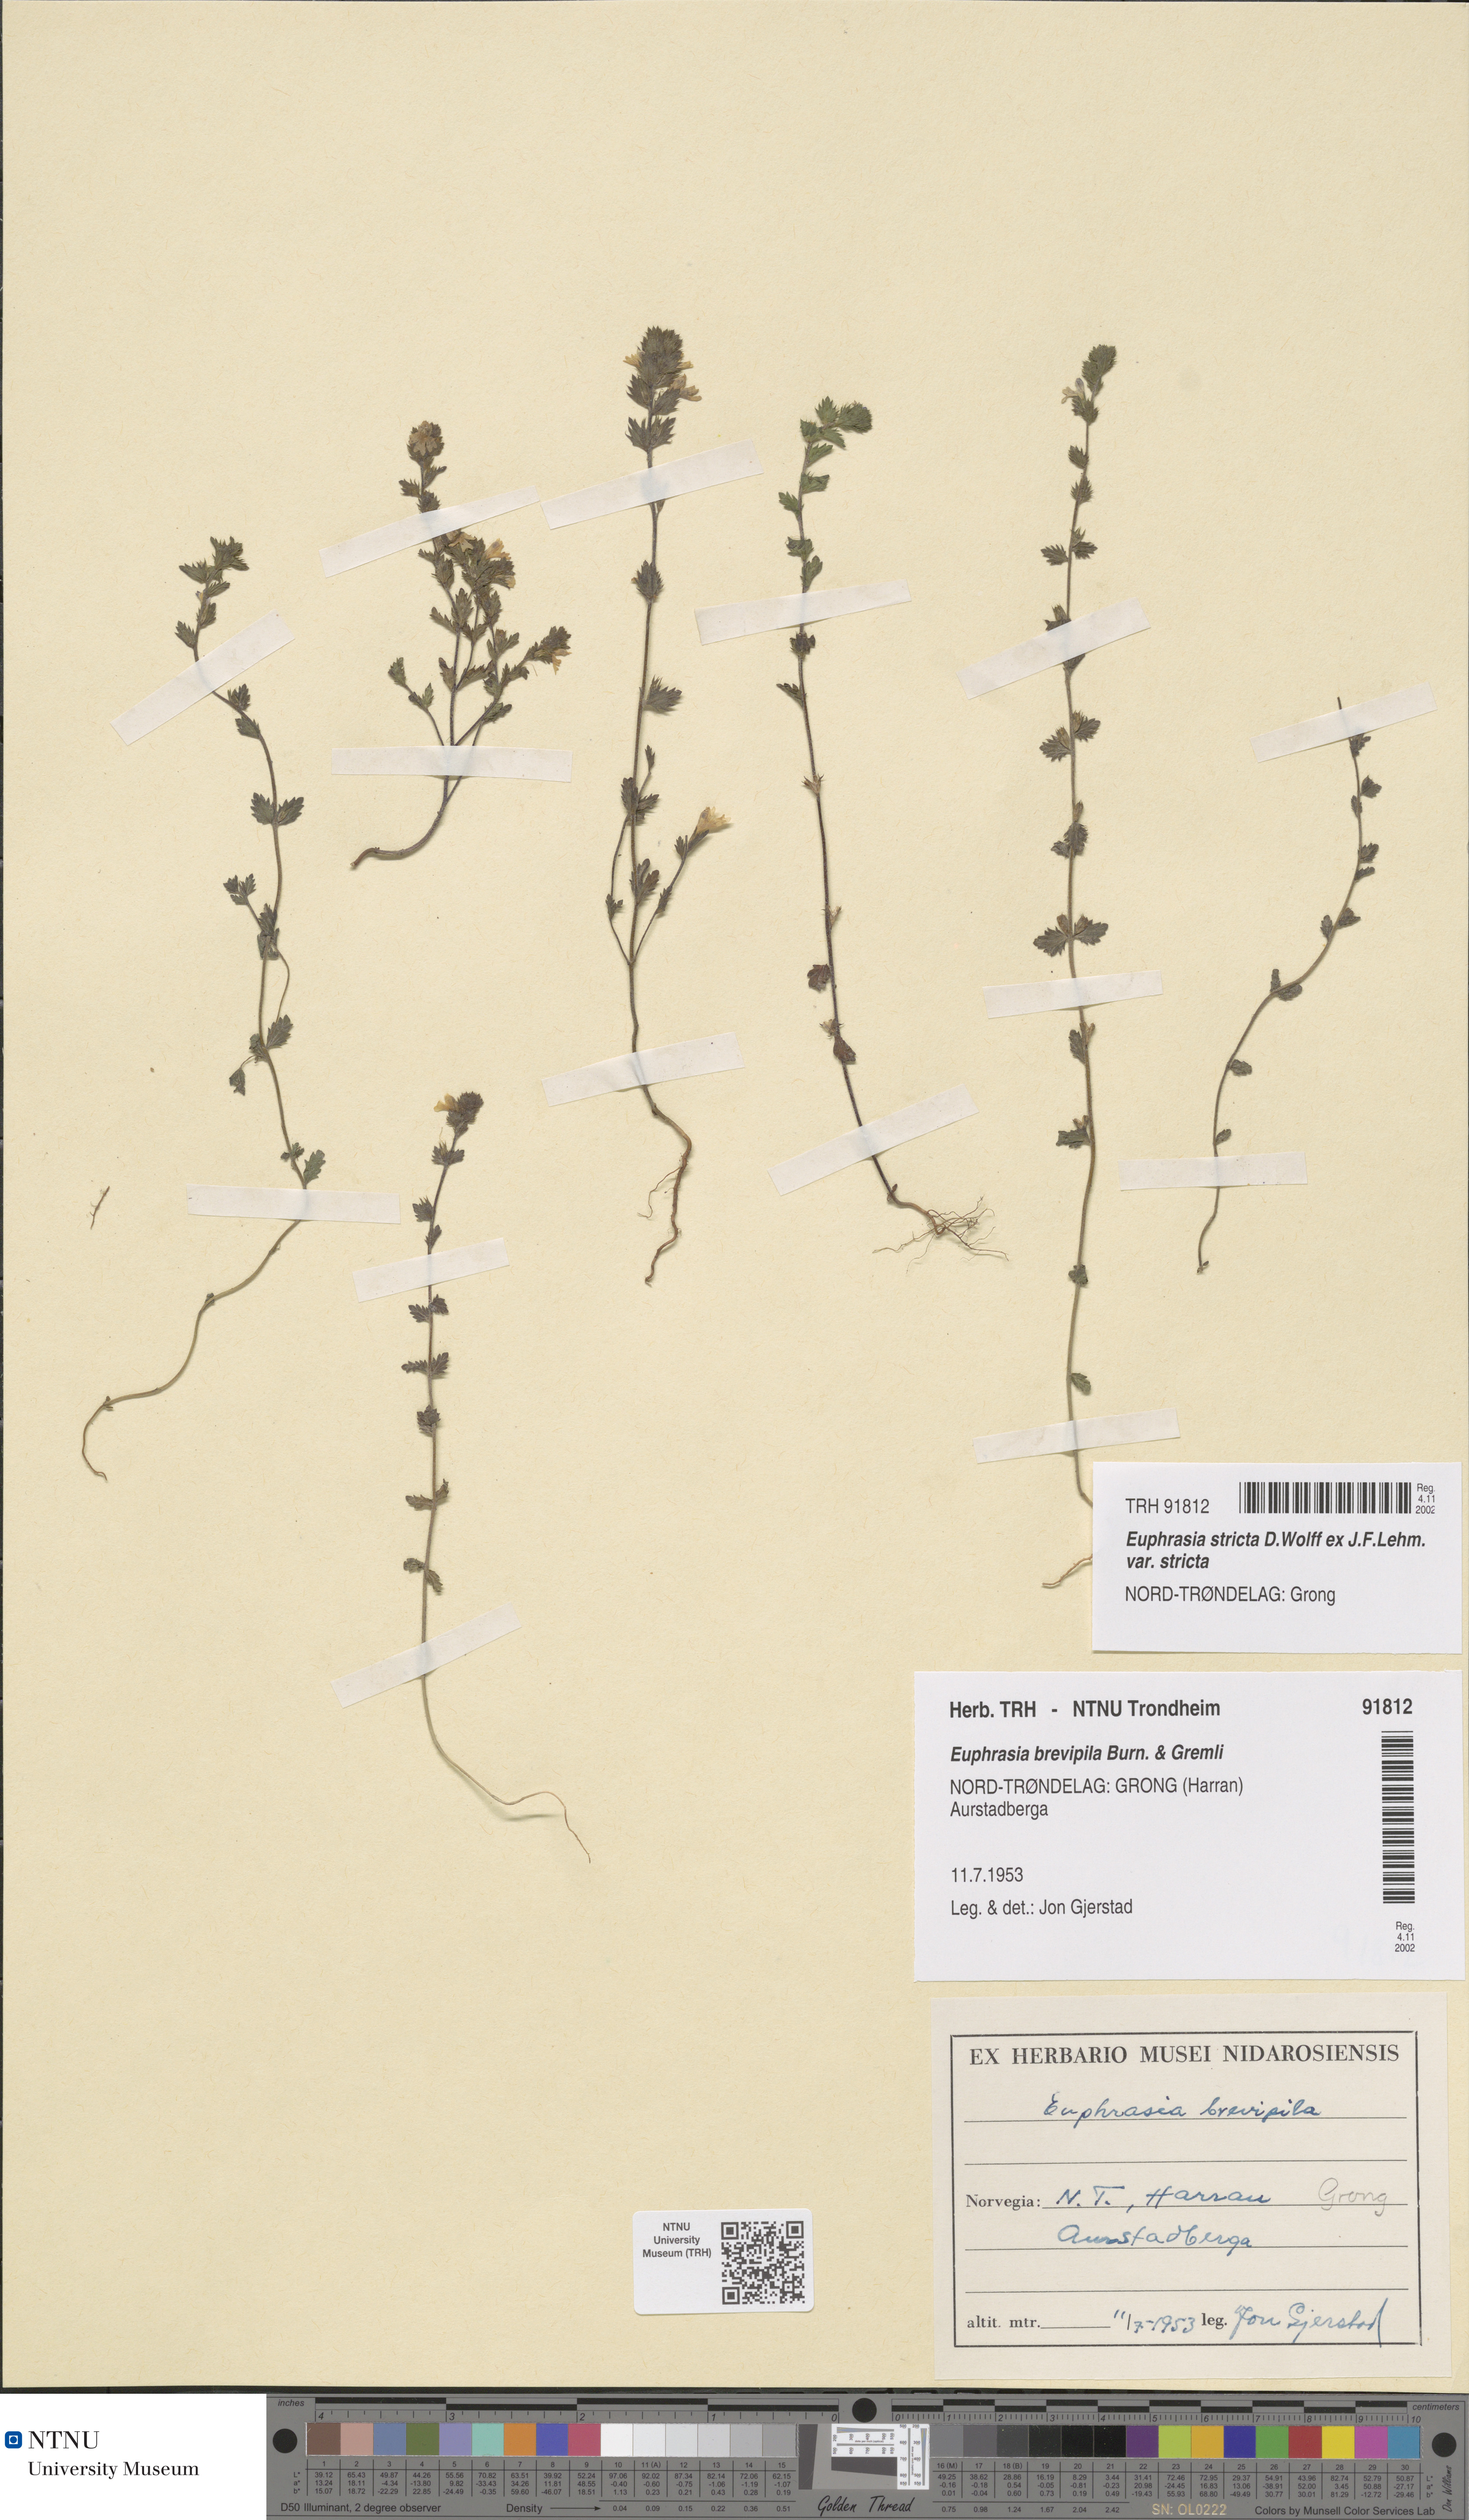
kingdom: Plantae
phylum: Tracheophyta
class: Magnoliopsida
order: Lamiales
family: Orobanchaceae
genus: Euphrasia
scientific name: Euphrasia vernalis
